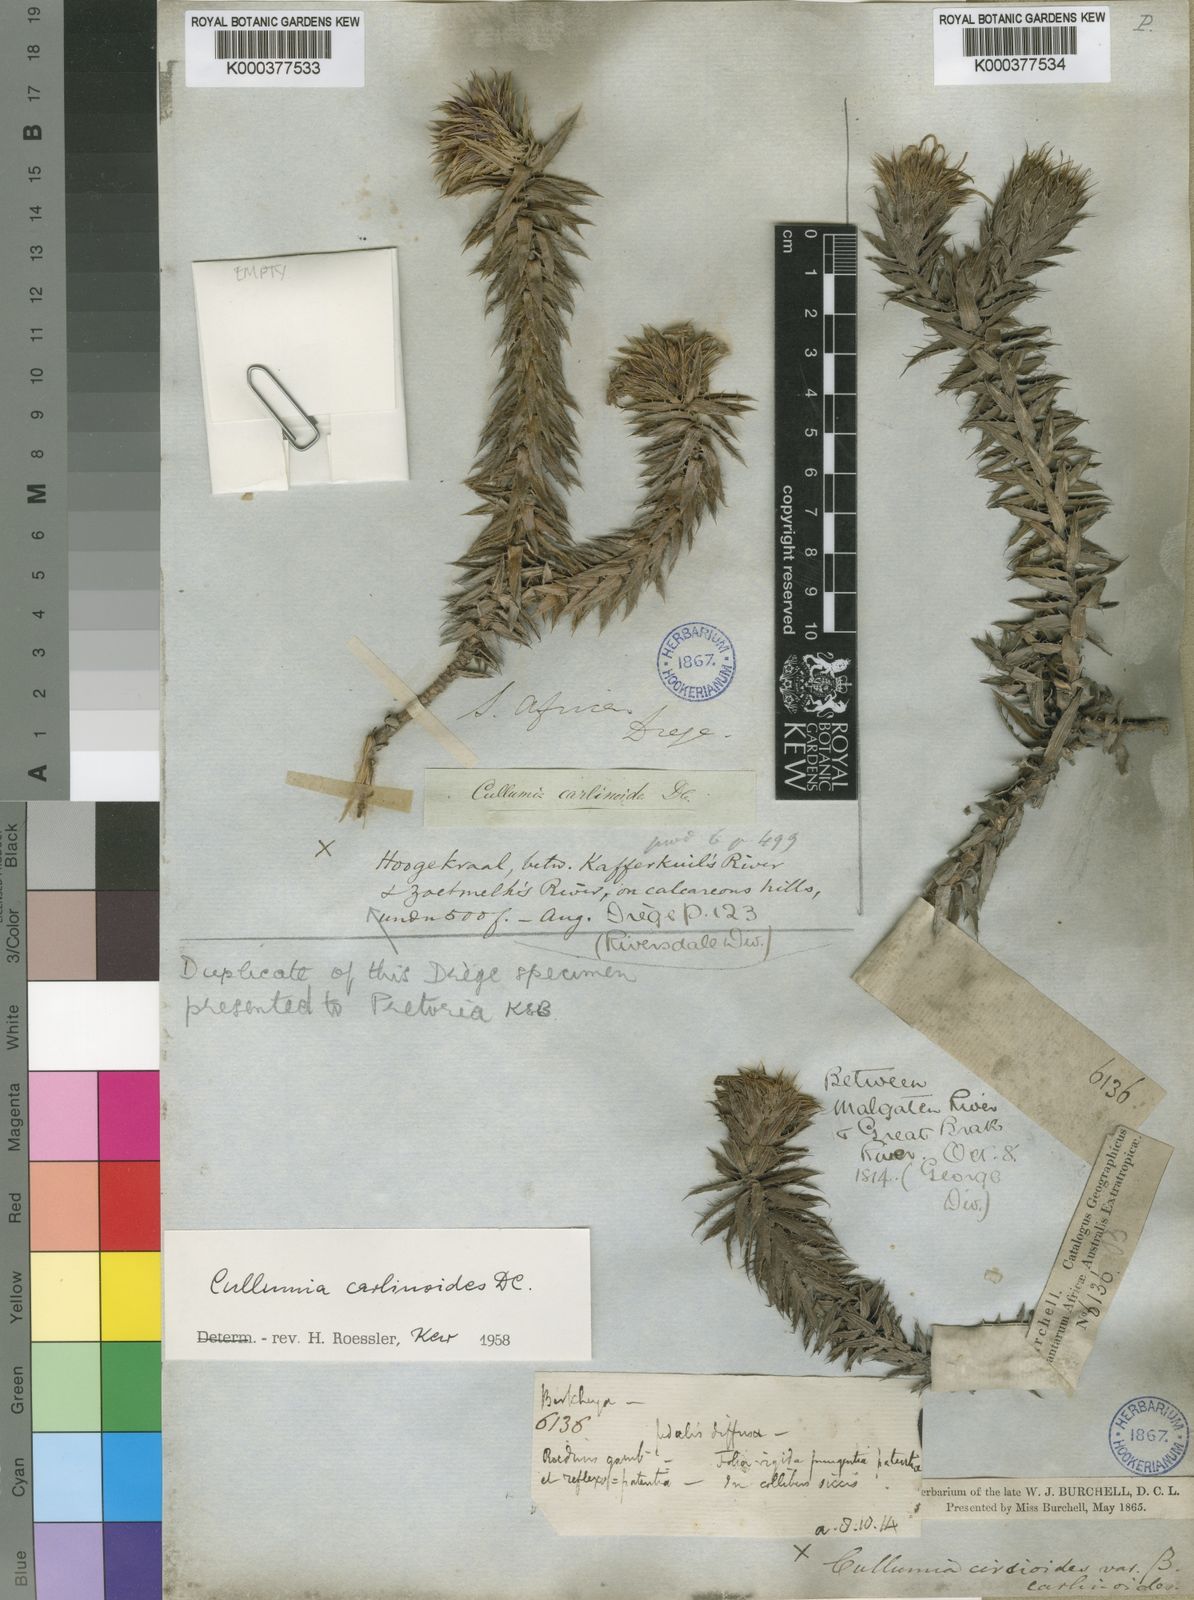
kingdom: Plantae
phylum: Tracheophyta
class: Magnoliopsida
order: Asterales
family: Asteraceae
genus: Cullumia
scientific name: Cullumia carlinoides
